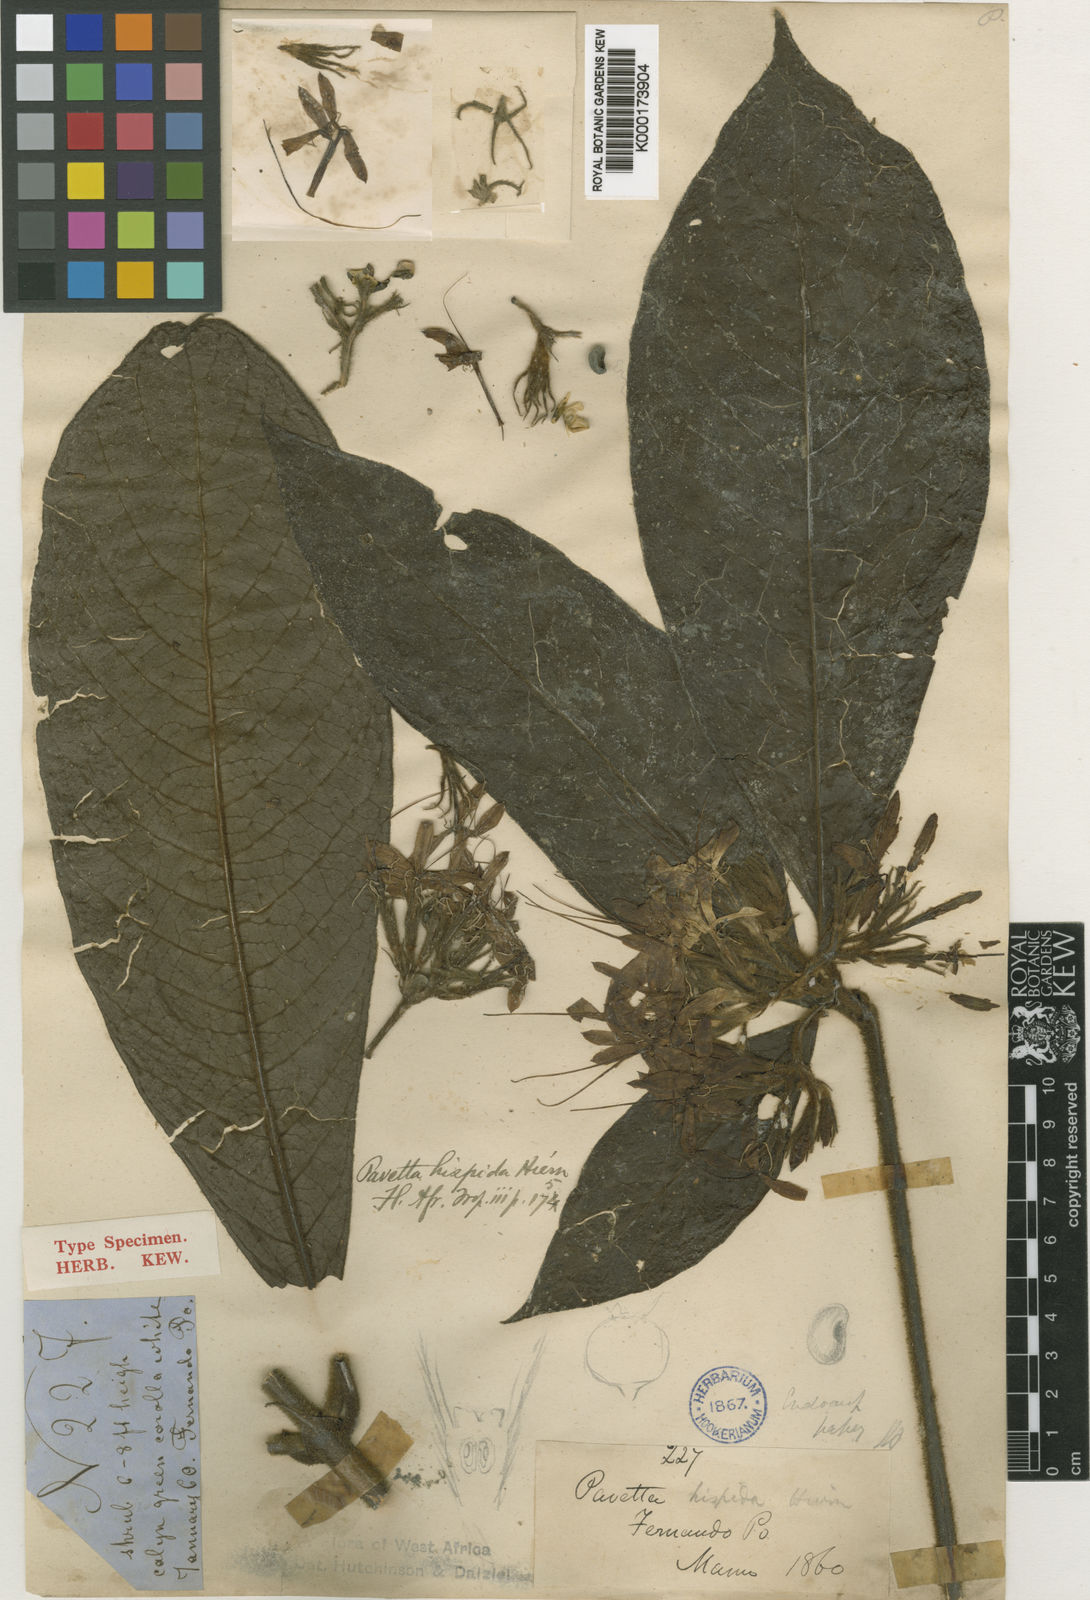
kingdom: Plantae
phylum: Tracheophyta
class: Magnoliopsida
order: Gentianales
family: Rubiaceae
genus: Pavetta
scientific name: Pavetta hispida
